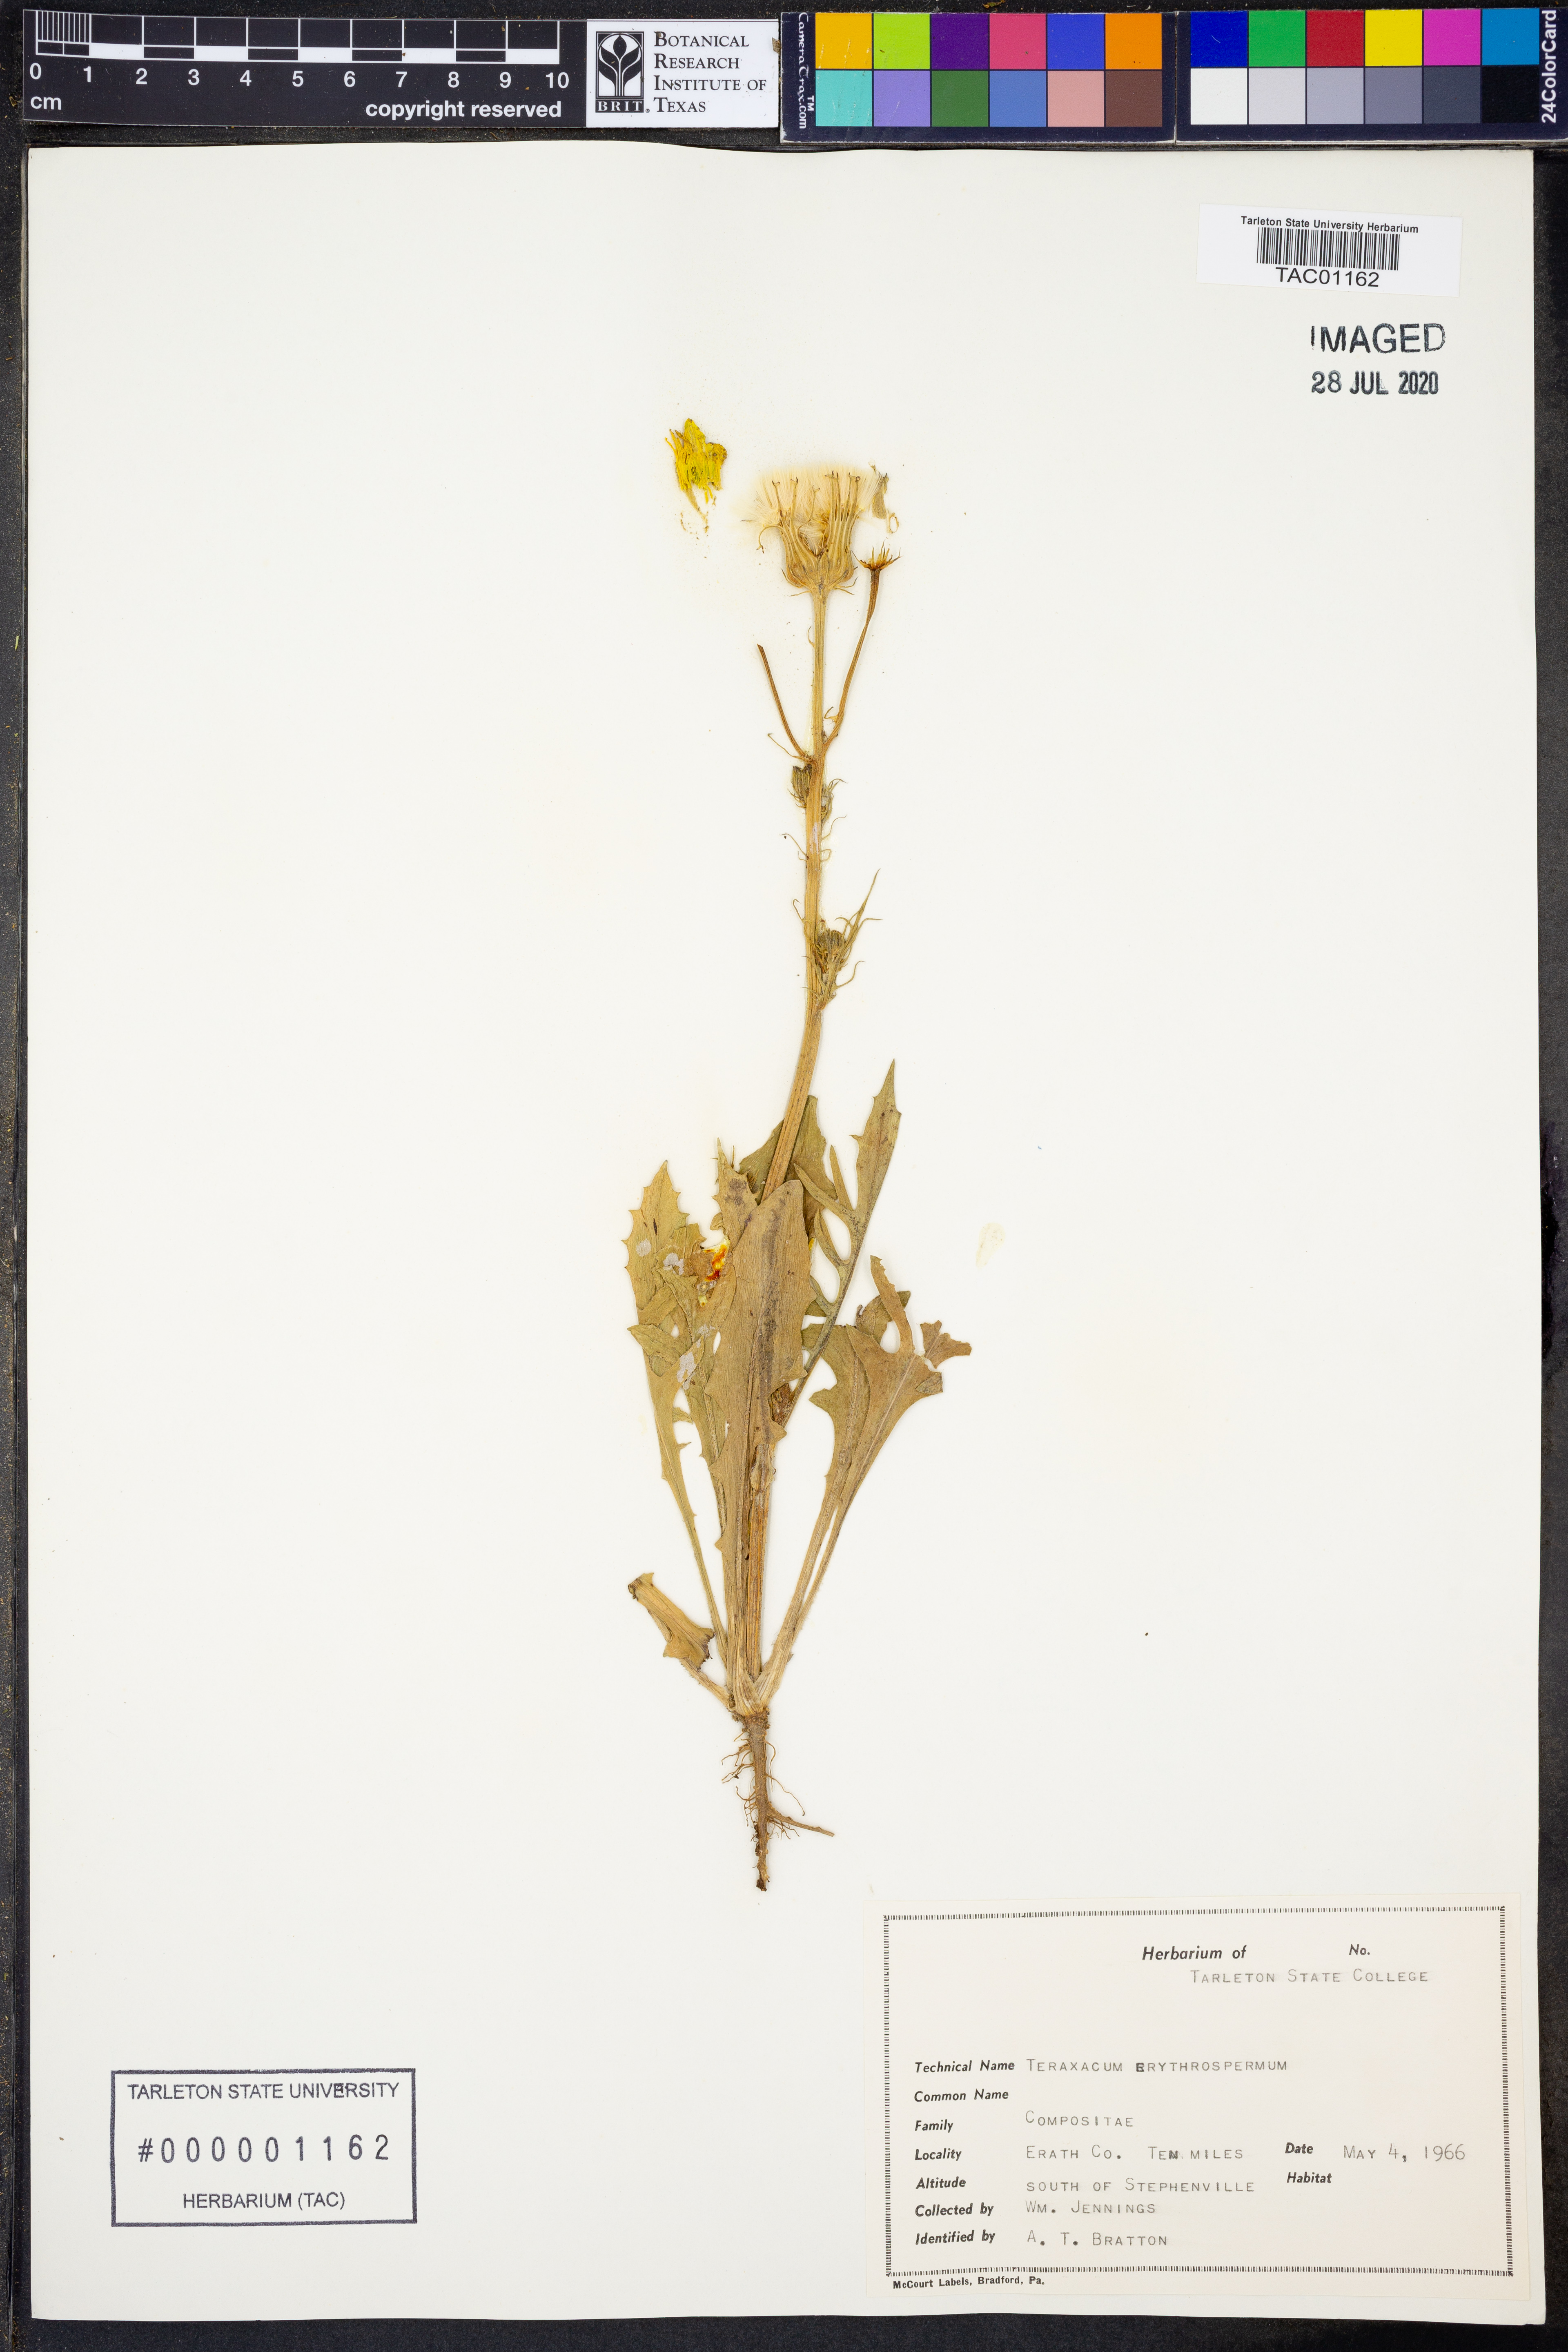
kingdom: Plantae
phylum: Tracheophyta
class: Magnoliopsida
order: Asterales
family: Asteraceae
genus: Taraxacum
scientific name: Taraxacum erythrospermum
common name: Rock dandelion
